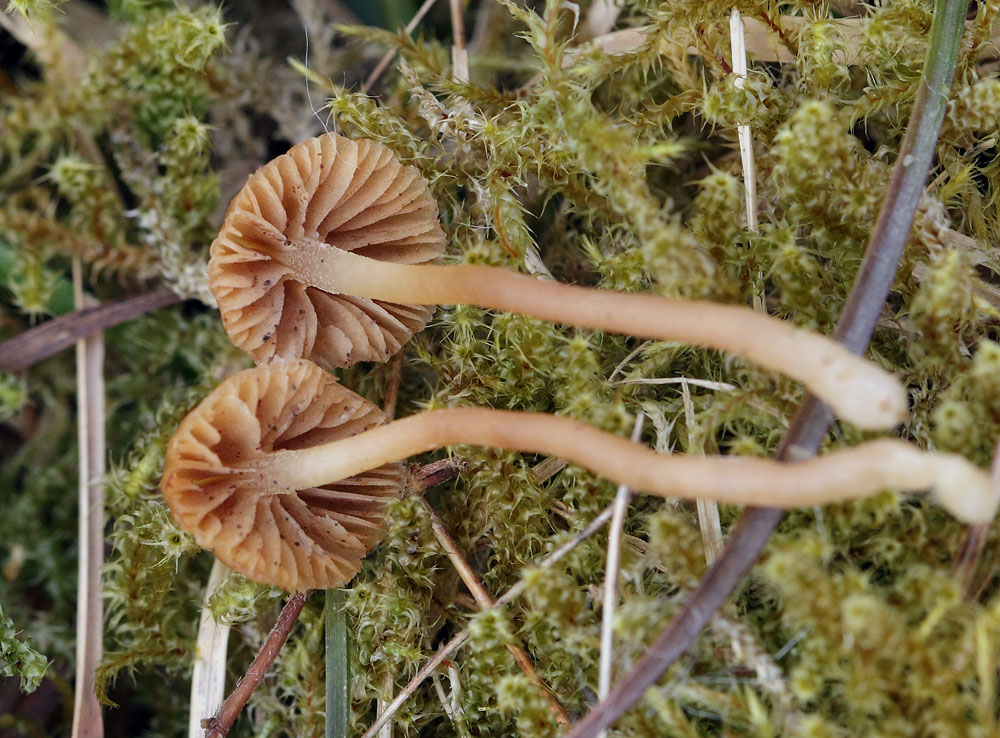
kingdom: Fungi
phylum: Basidiomycota
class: Agaricomycetes
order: Agaricales
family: Hymenogastraceae
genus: Galerina
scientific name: Galerina mniophila
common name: olivengul hjelmhat
